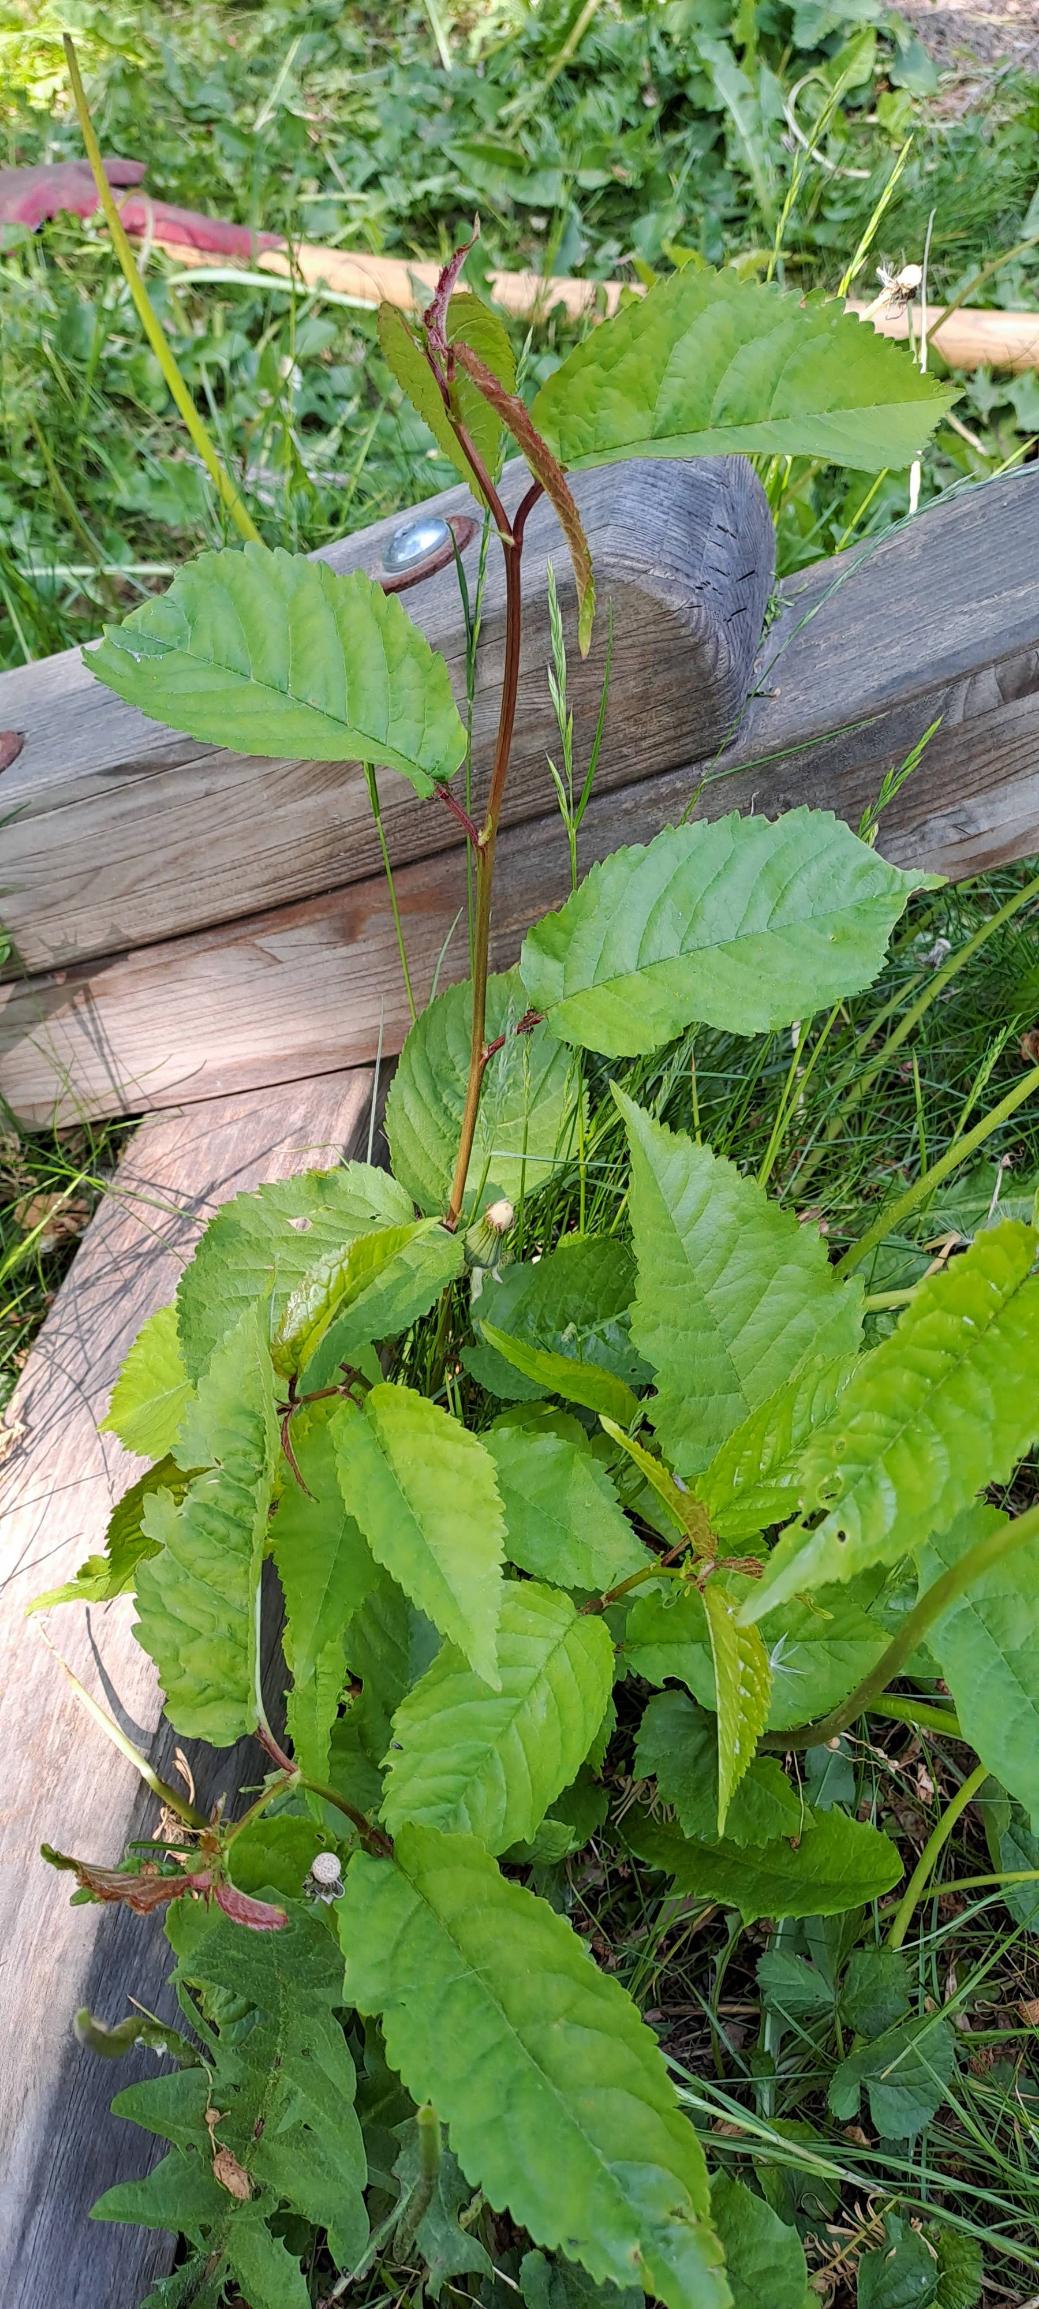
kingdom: Plantae
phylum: Tracheophyta
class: Magnoliopsida
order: Rosales
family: Rosaceae
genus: Prunus
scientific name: Prunus avium
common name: Fugle-kirsebær
